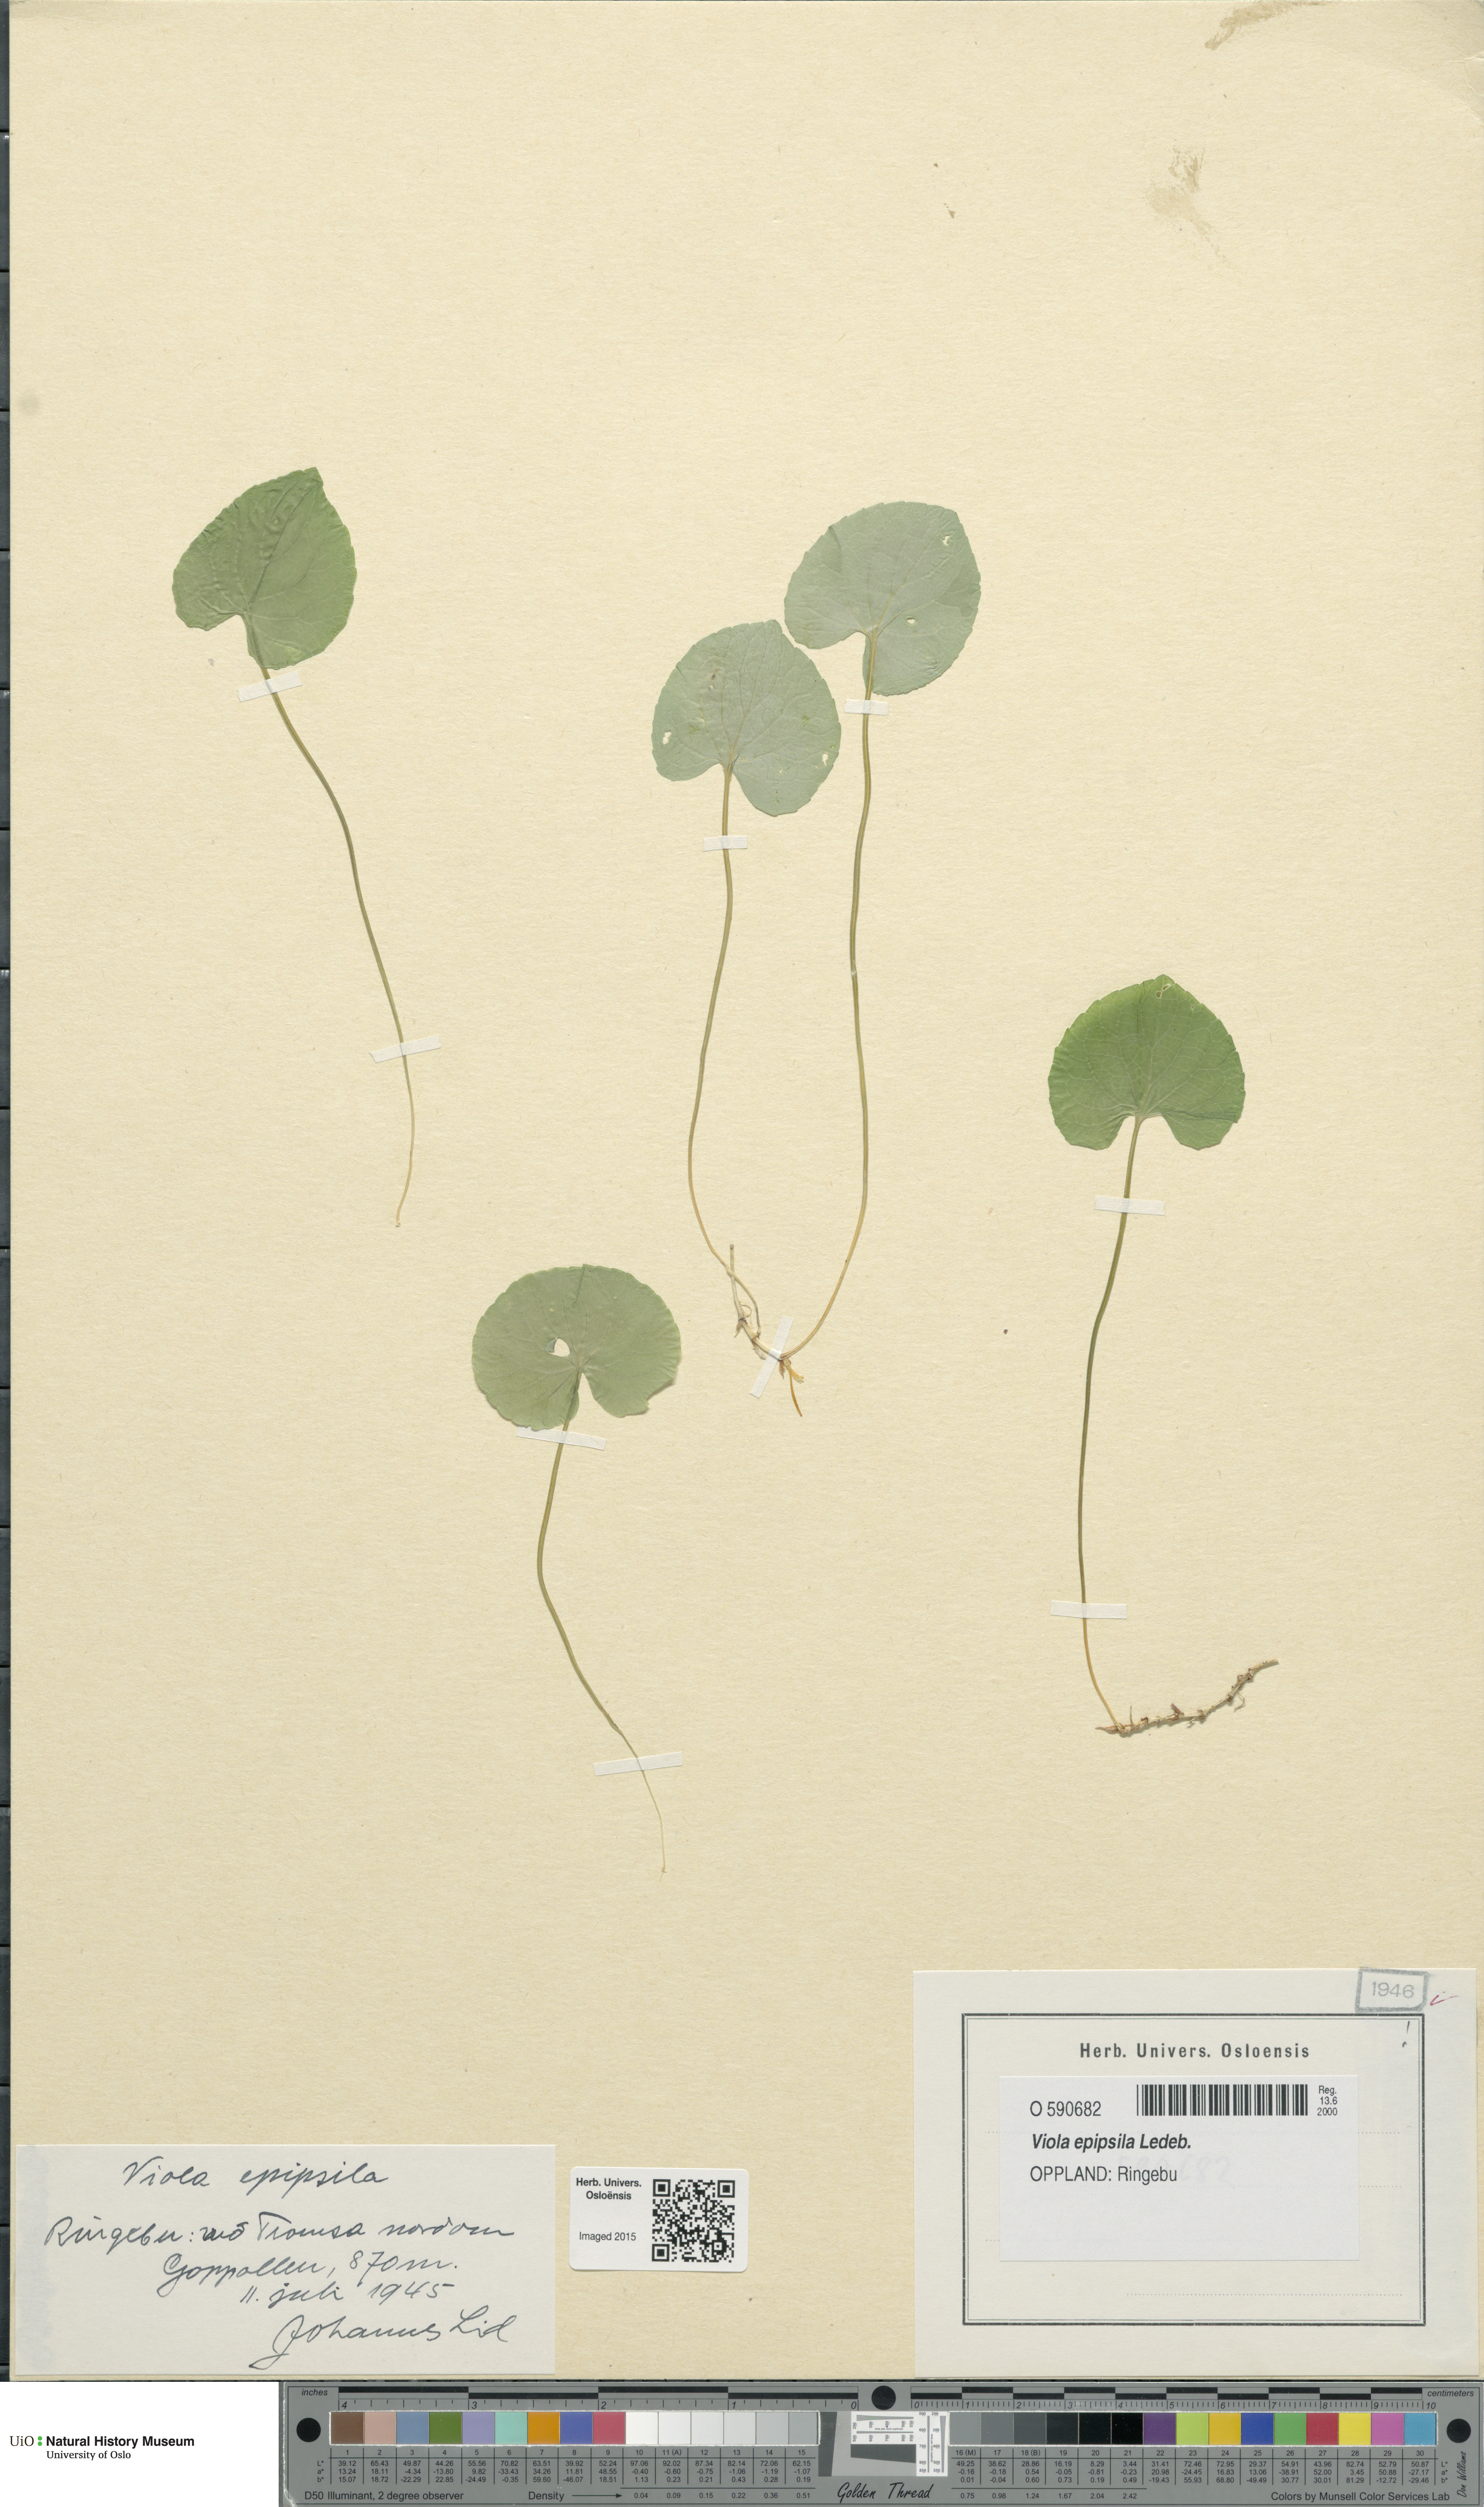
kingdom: Plantae
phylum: Tracheophyta
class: Magnoliopsida
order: Malpighiales
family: Violaceae
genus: Viola
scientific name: Viola epipsila
